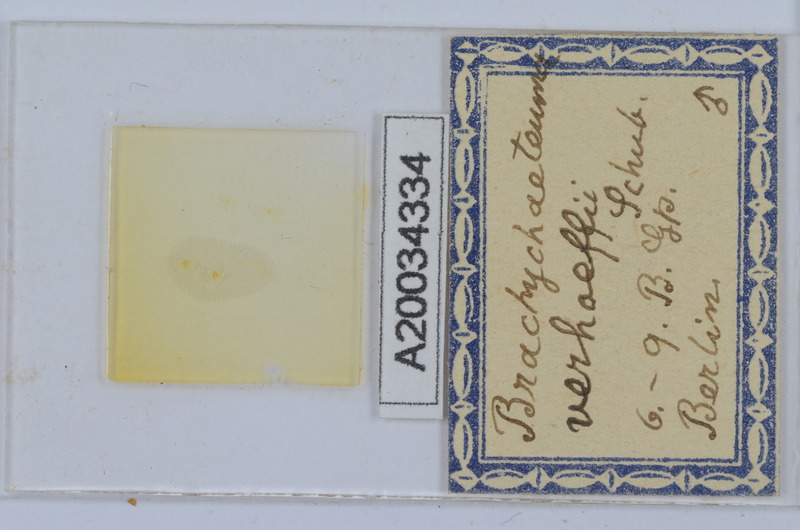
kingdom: Animalia
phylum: Arthropoda
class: Diplopoda
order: Chordeumatida
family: Brachychaeteumatidae
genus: Brachychaeteuma
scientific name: Brachychaeteuma bradeae
